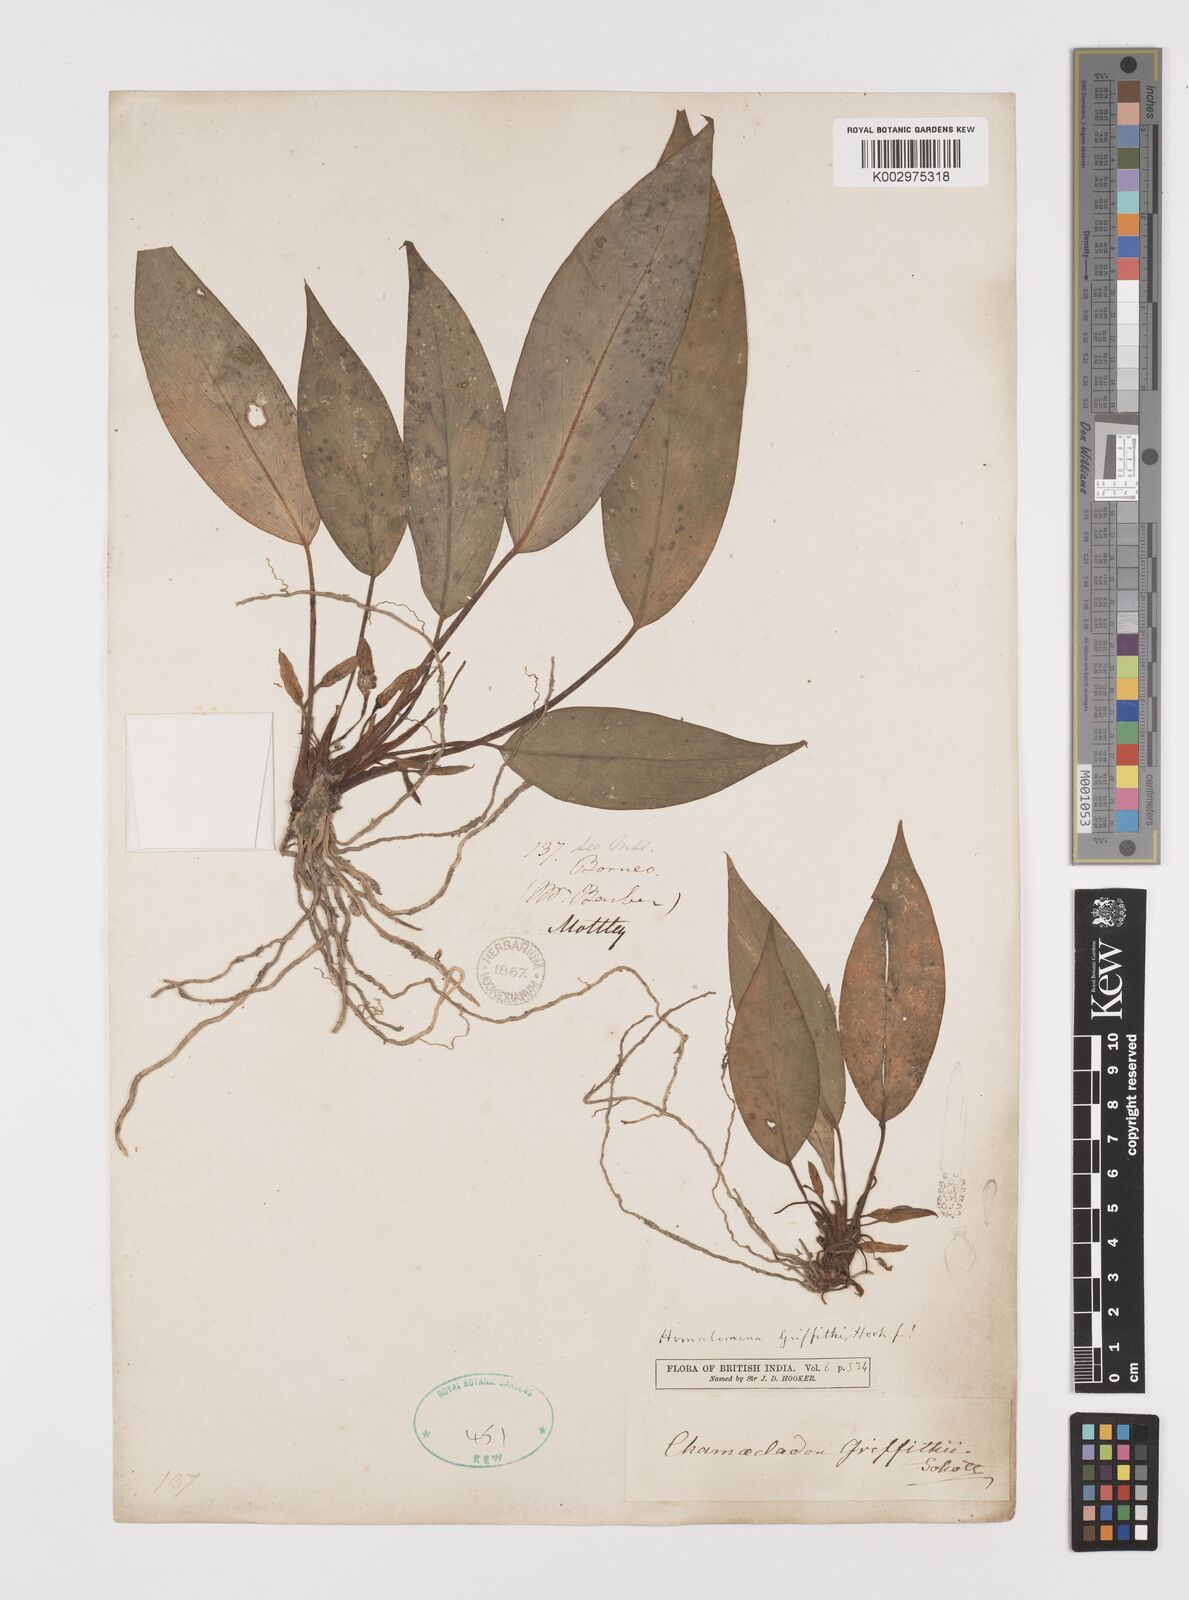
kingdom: Plantae
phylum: Tracheophyta
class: Liliopsida
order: Alismatales
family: Araceae
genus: Homalomena
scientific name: Homalomena griffithii
